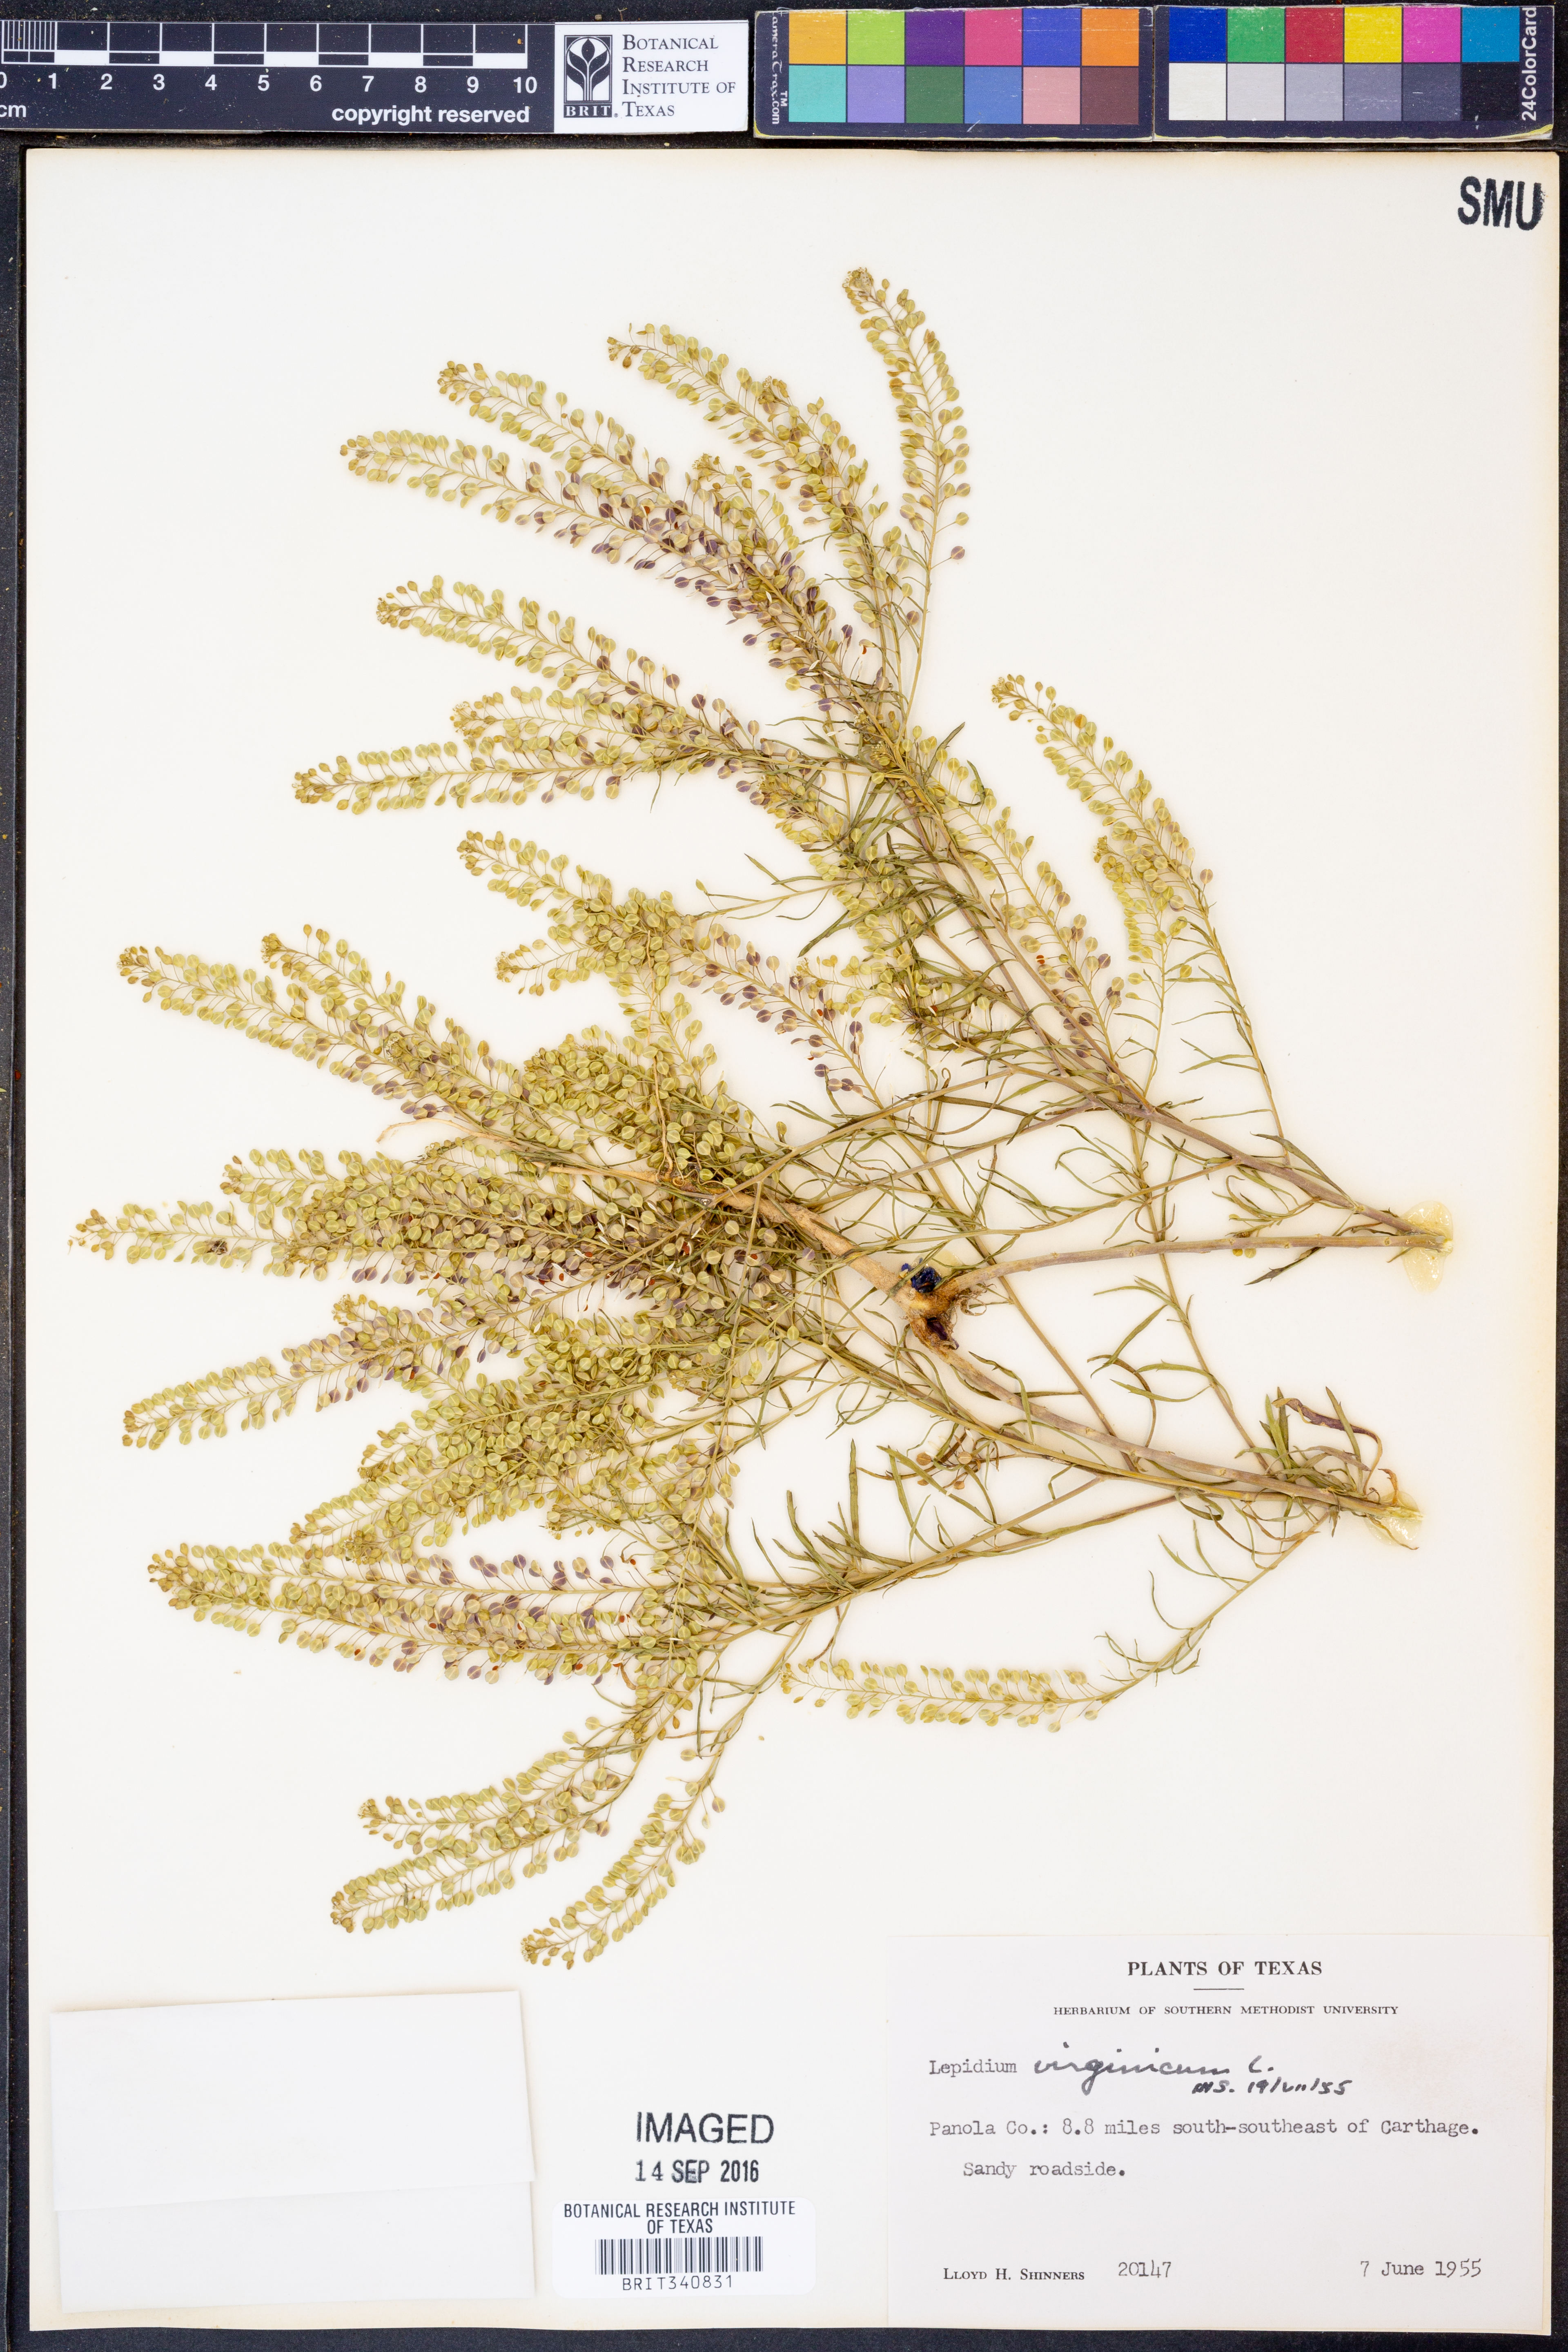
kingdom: Plantae
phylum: Tracheophyta
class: Magnoliopsida
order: Brassicales
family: Brassicaceae
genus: Lepidium
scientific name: Lepidium virginicum
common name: Least pepperwort
